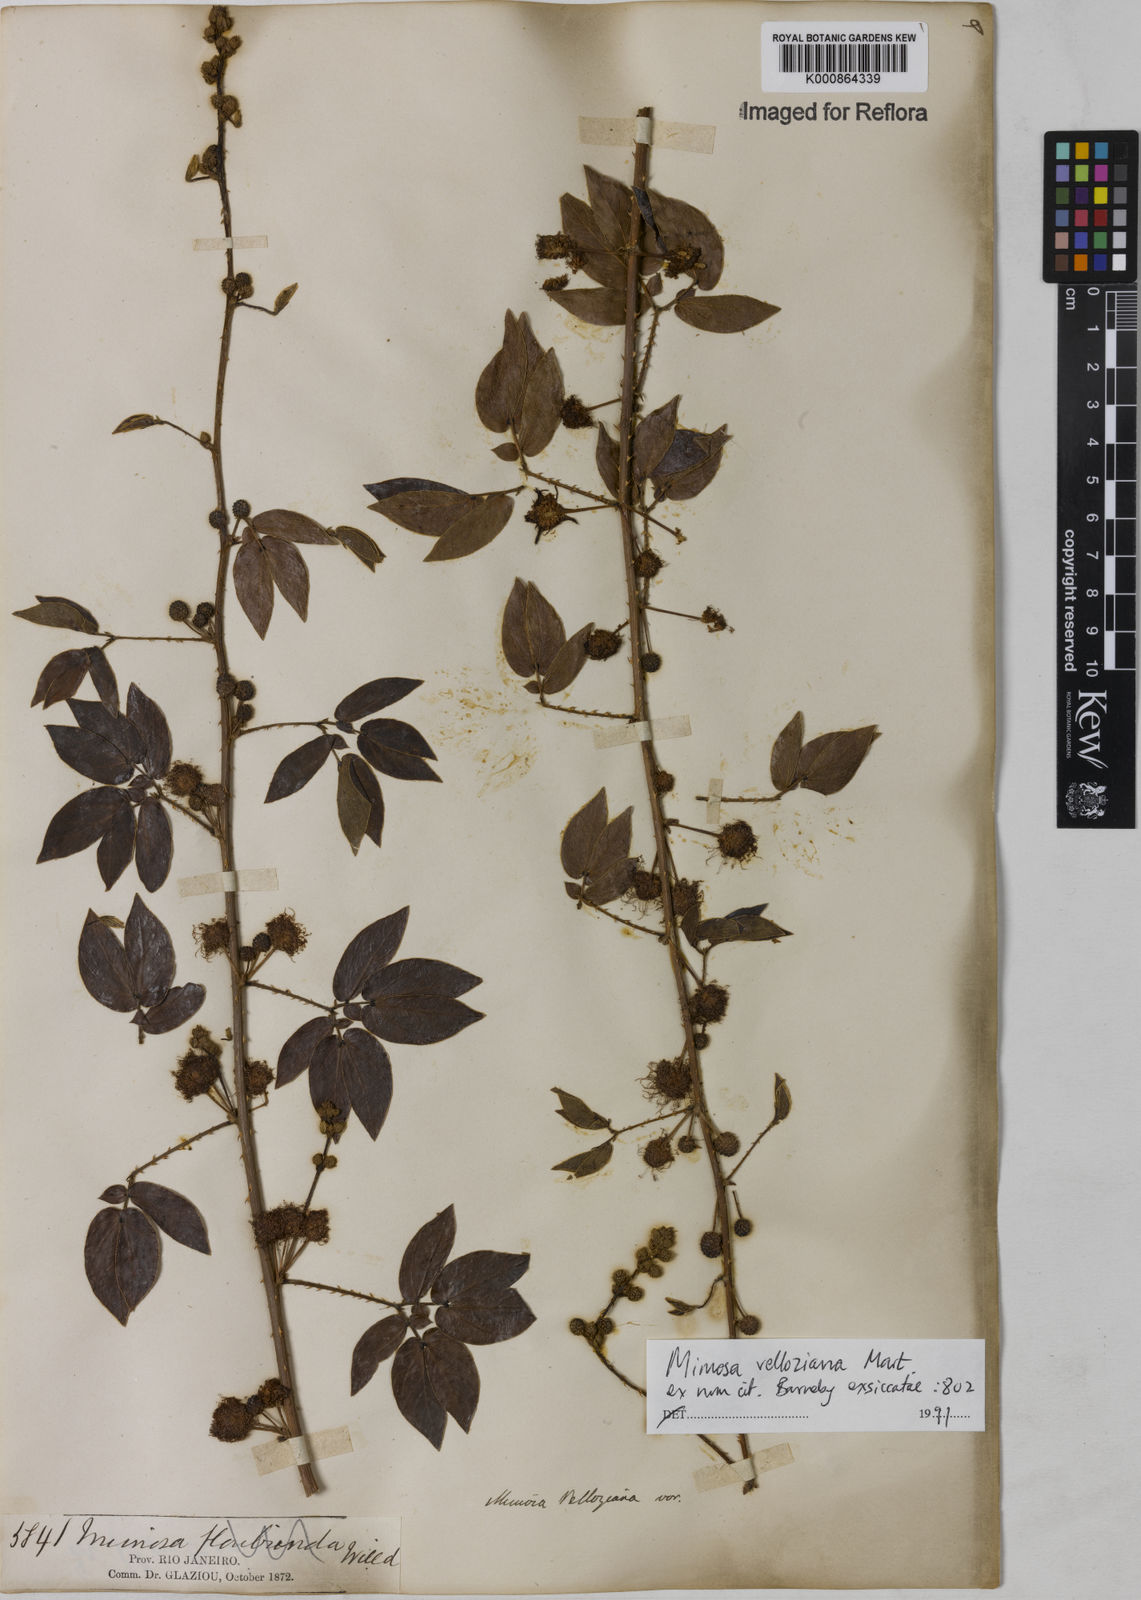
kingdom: Plantae
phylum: Tracheophyta
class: Magnoliopsida
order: Fabales
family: Fabaceae
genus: Mimosa
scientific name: Mimosa velloziana
